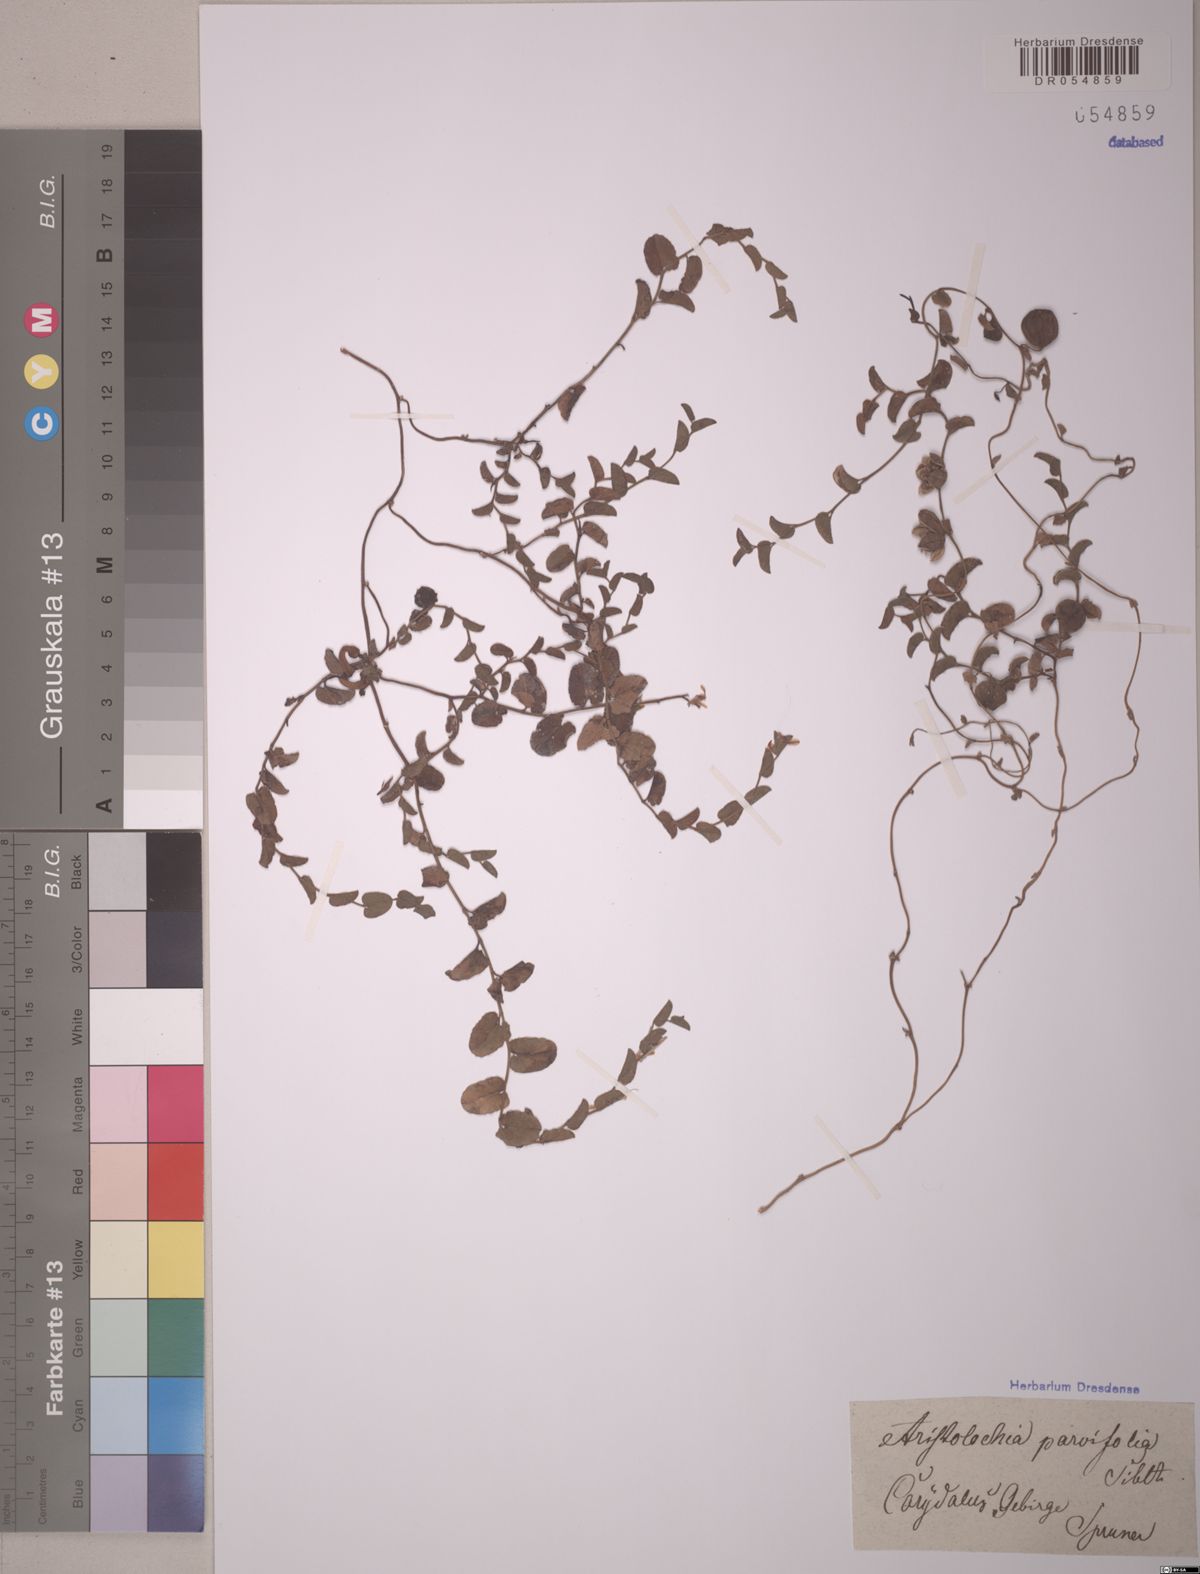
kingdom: Plantae
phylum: Tracheophyta
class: Magnoliopsida
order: Piperales
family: Aristolochiaceae
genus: Aristolochia
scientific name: Aristolochia parvifolia
